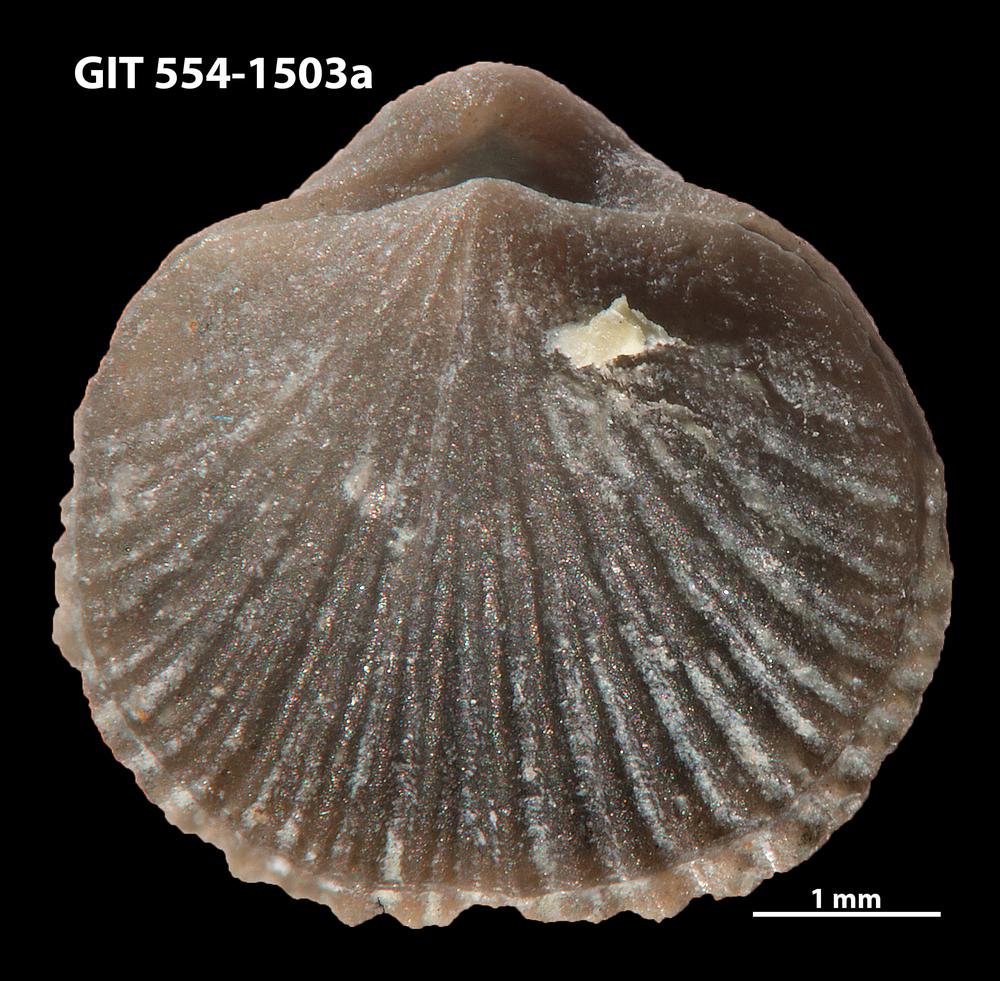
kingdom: Animalia
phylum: Brachiopoda
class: Rhynchonellata
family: Rhipidomellidae
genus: Mendacella
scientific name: Mendacella circularis
